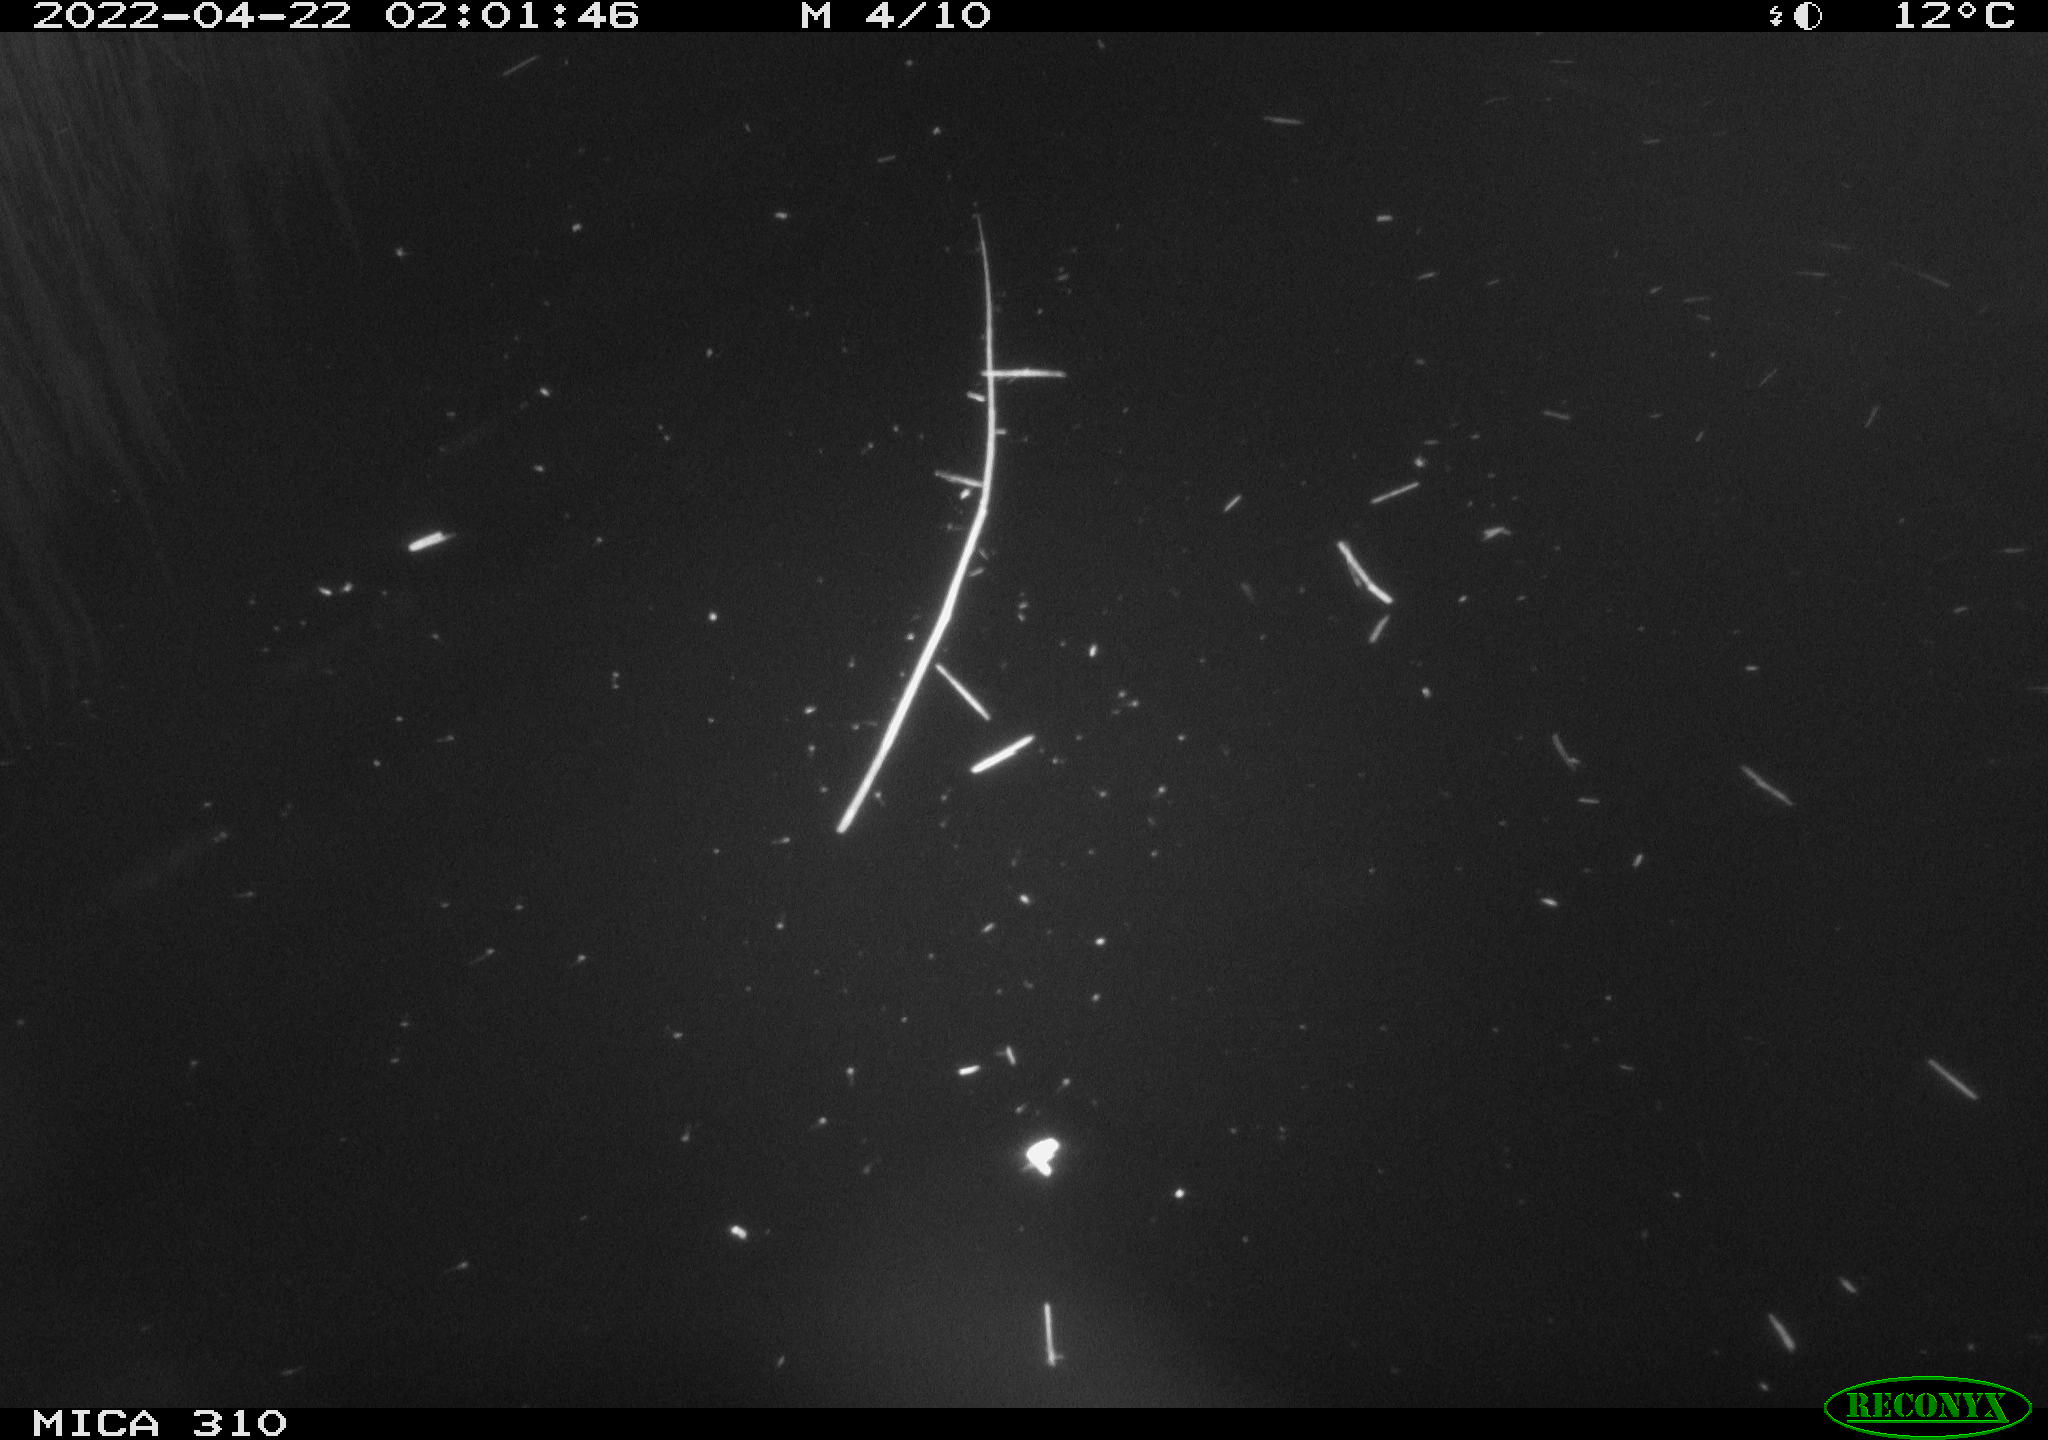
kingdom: Animalia
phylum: Chordata
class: Aves
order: Anseriformes
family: Anatidae
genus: Anas
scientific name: Anas platyrhynchos
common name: Mallard
